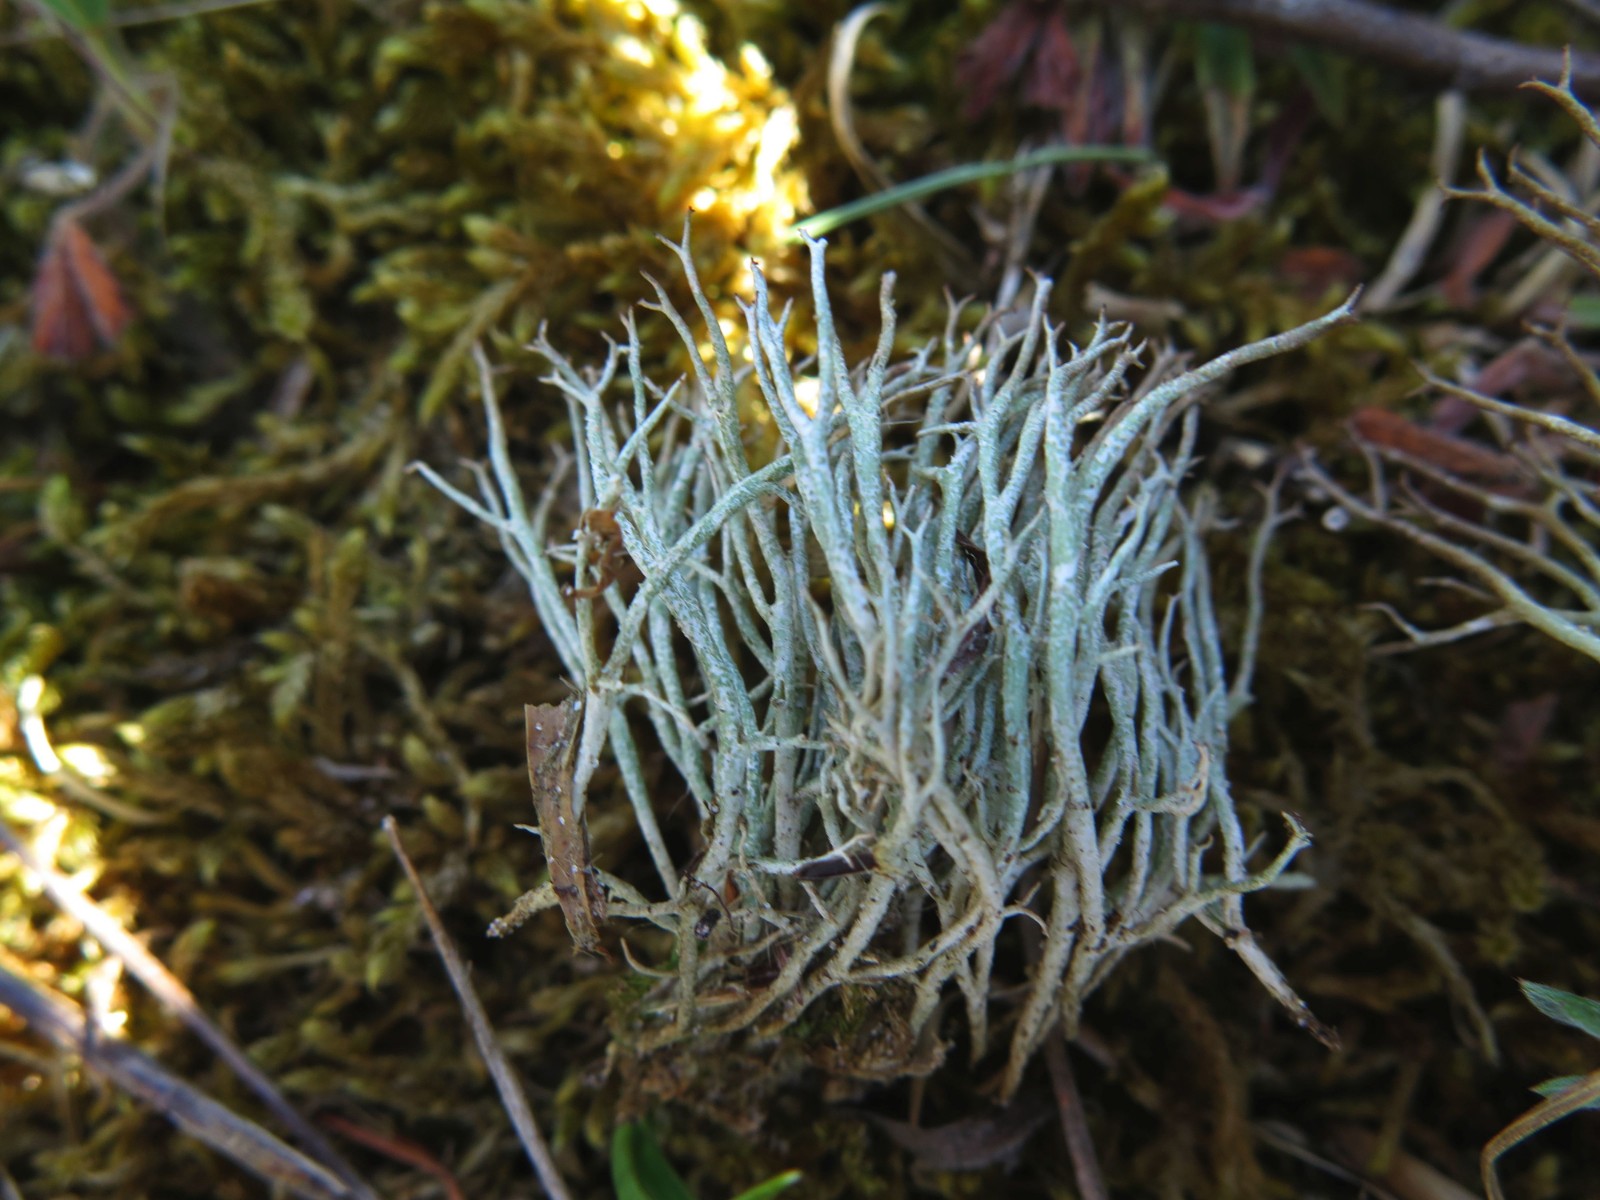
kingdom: Fungi
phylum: Ascomycota
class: Lecanoromycetes
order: Lecanorales
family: Cladoniaceae
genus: Cladonia
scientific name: Cladonia furcata
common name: kløftet bægerlav
